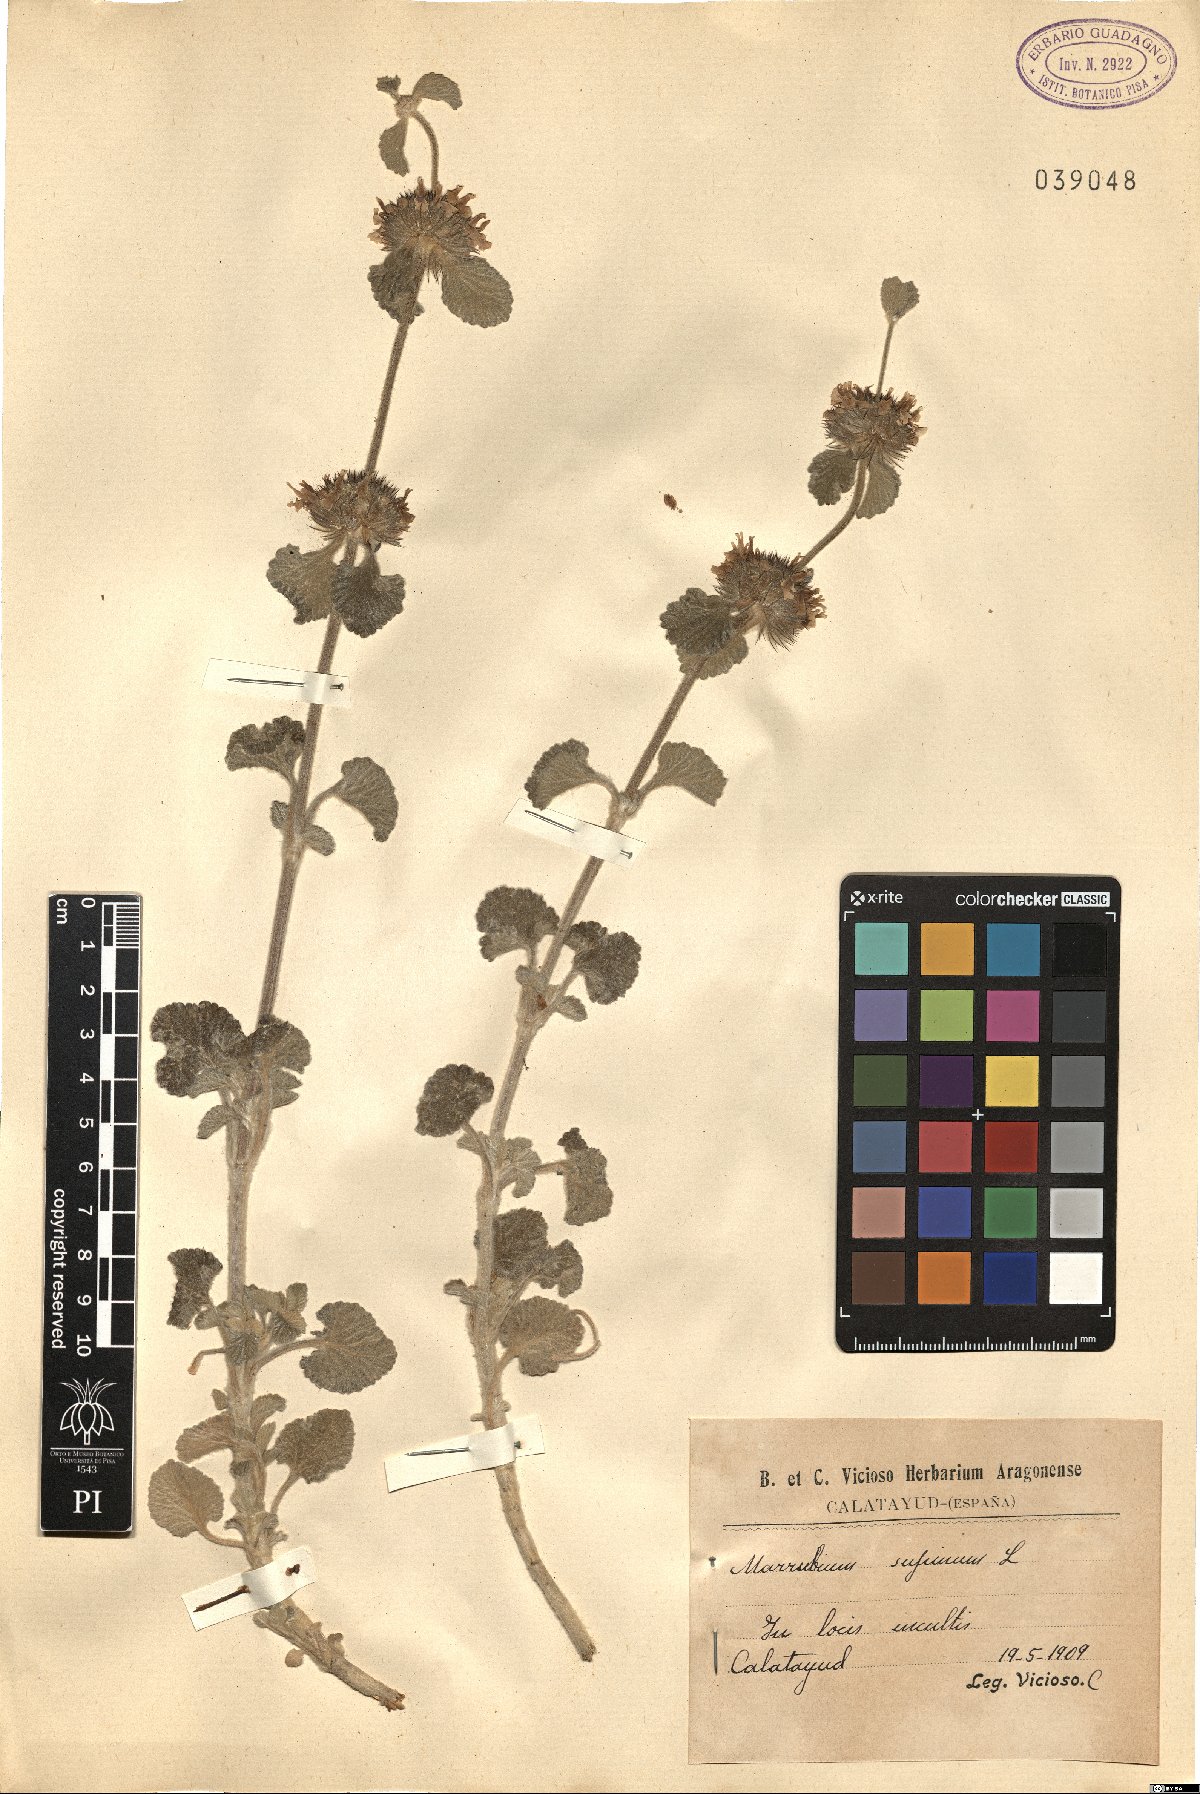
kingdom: Plantae
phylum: Tracheophyta
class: Magnoliopsida
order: Lamiales
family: Lamiaceae
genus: Marrubium
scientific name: Marrubium supinum
